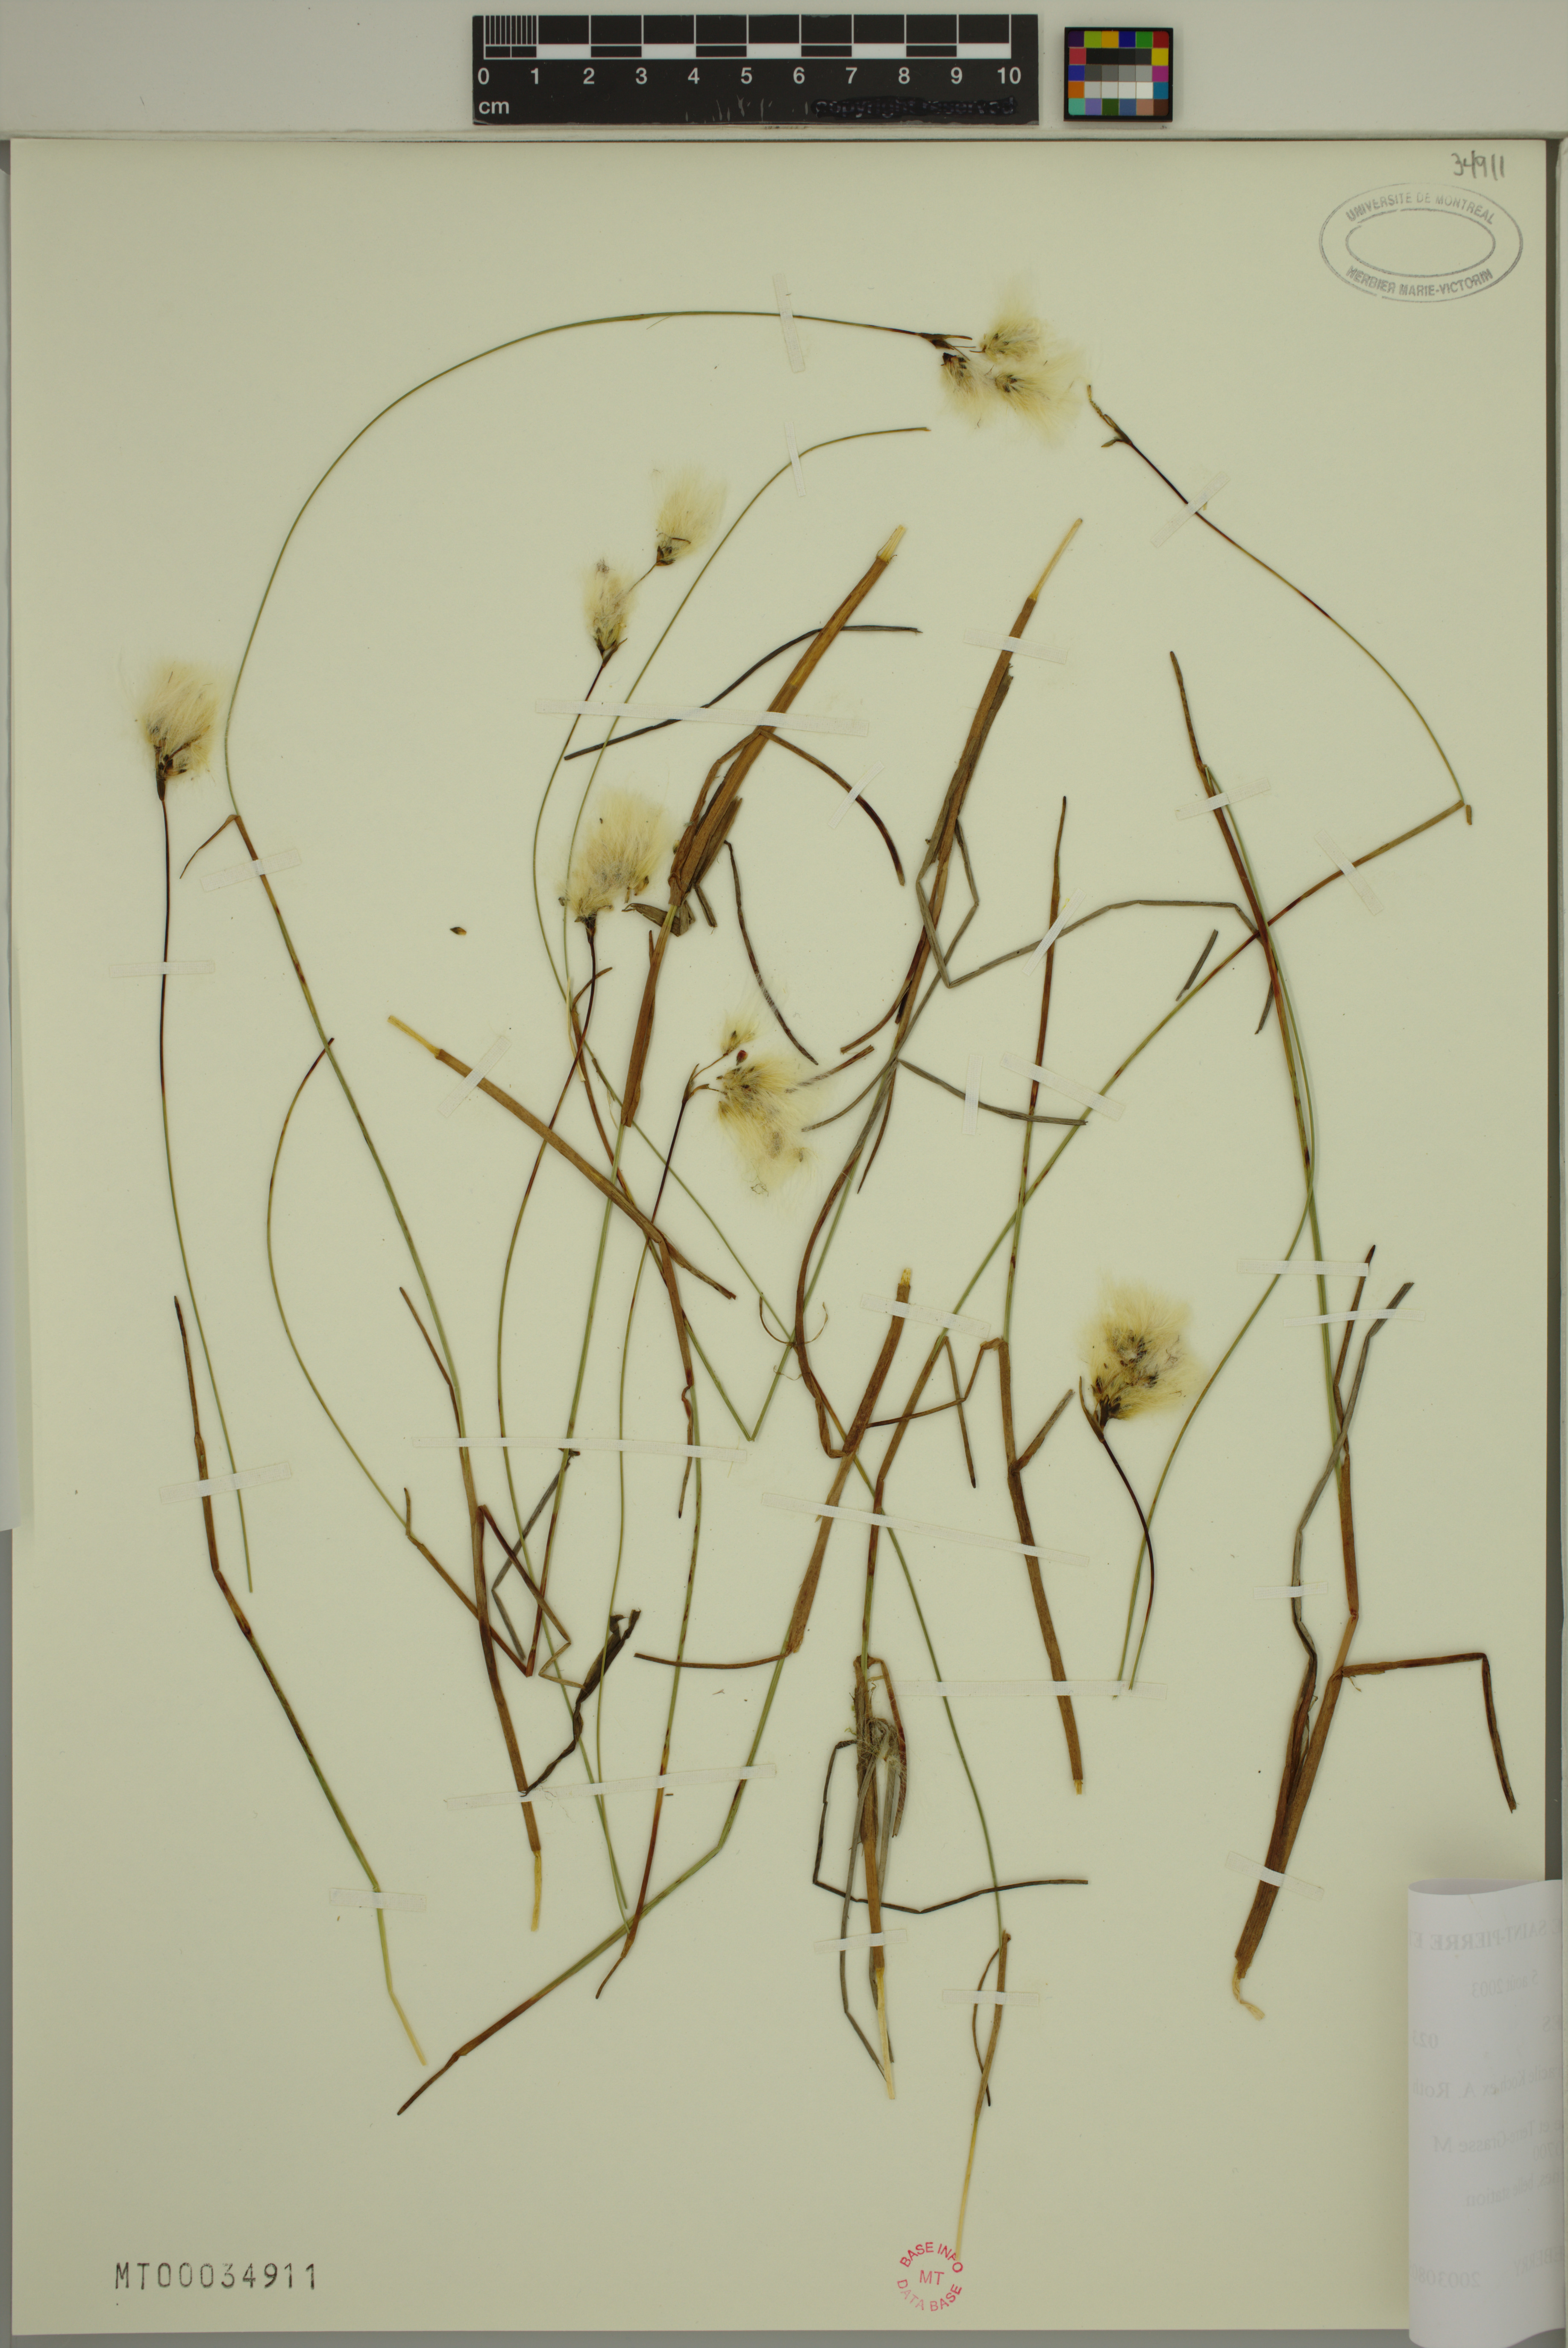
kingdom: Plantae
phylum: Tracheophyta
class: Liliopsida
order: Poales
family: Cyperaceae
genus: Eriophorum
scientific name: Eriophorum gracile
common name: Slender cottongrass
